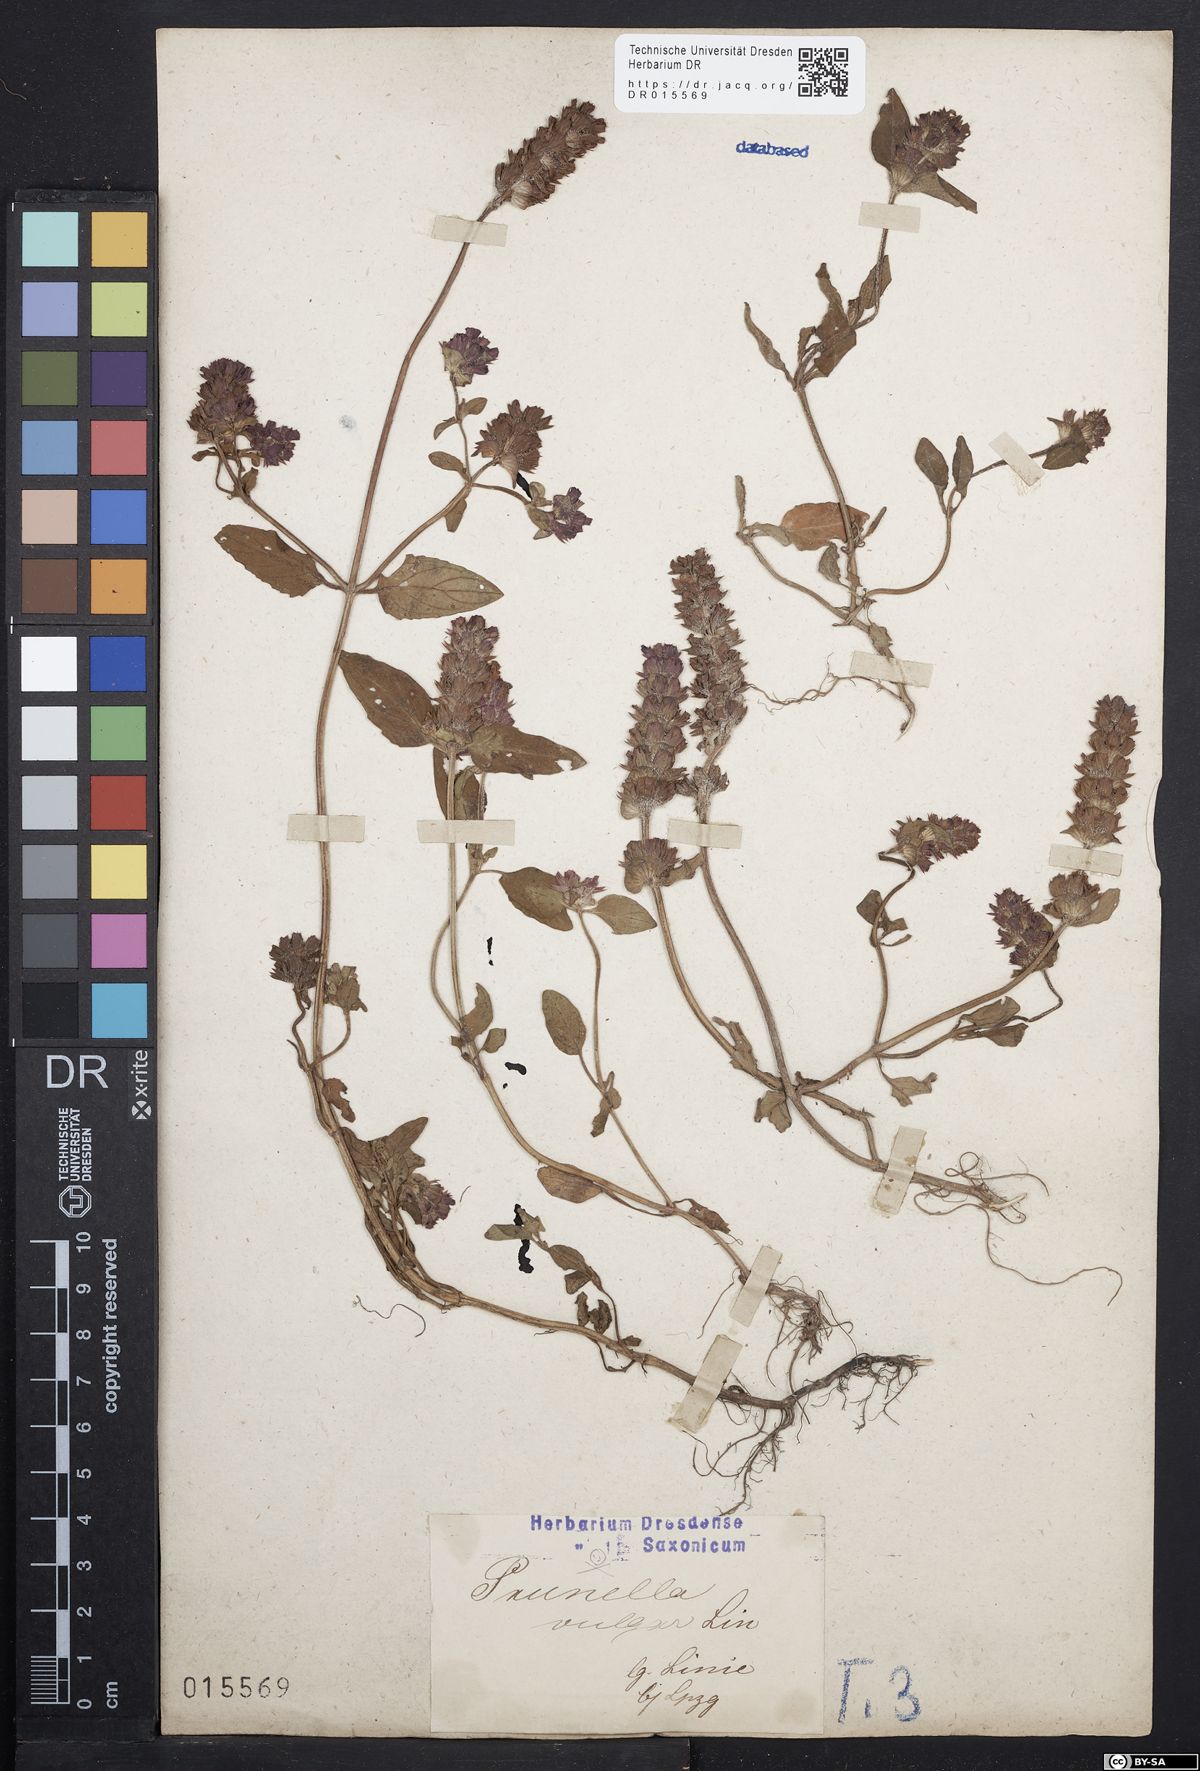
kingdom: Plantae
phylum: Tracheophyta
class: Magnoliopsida
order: Lamiales
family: Lamiaceae
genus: Prunella
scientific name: Prunella vulgaris
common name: Heal-all
